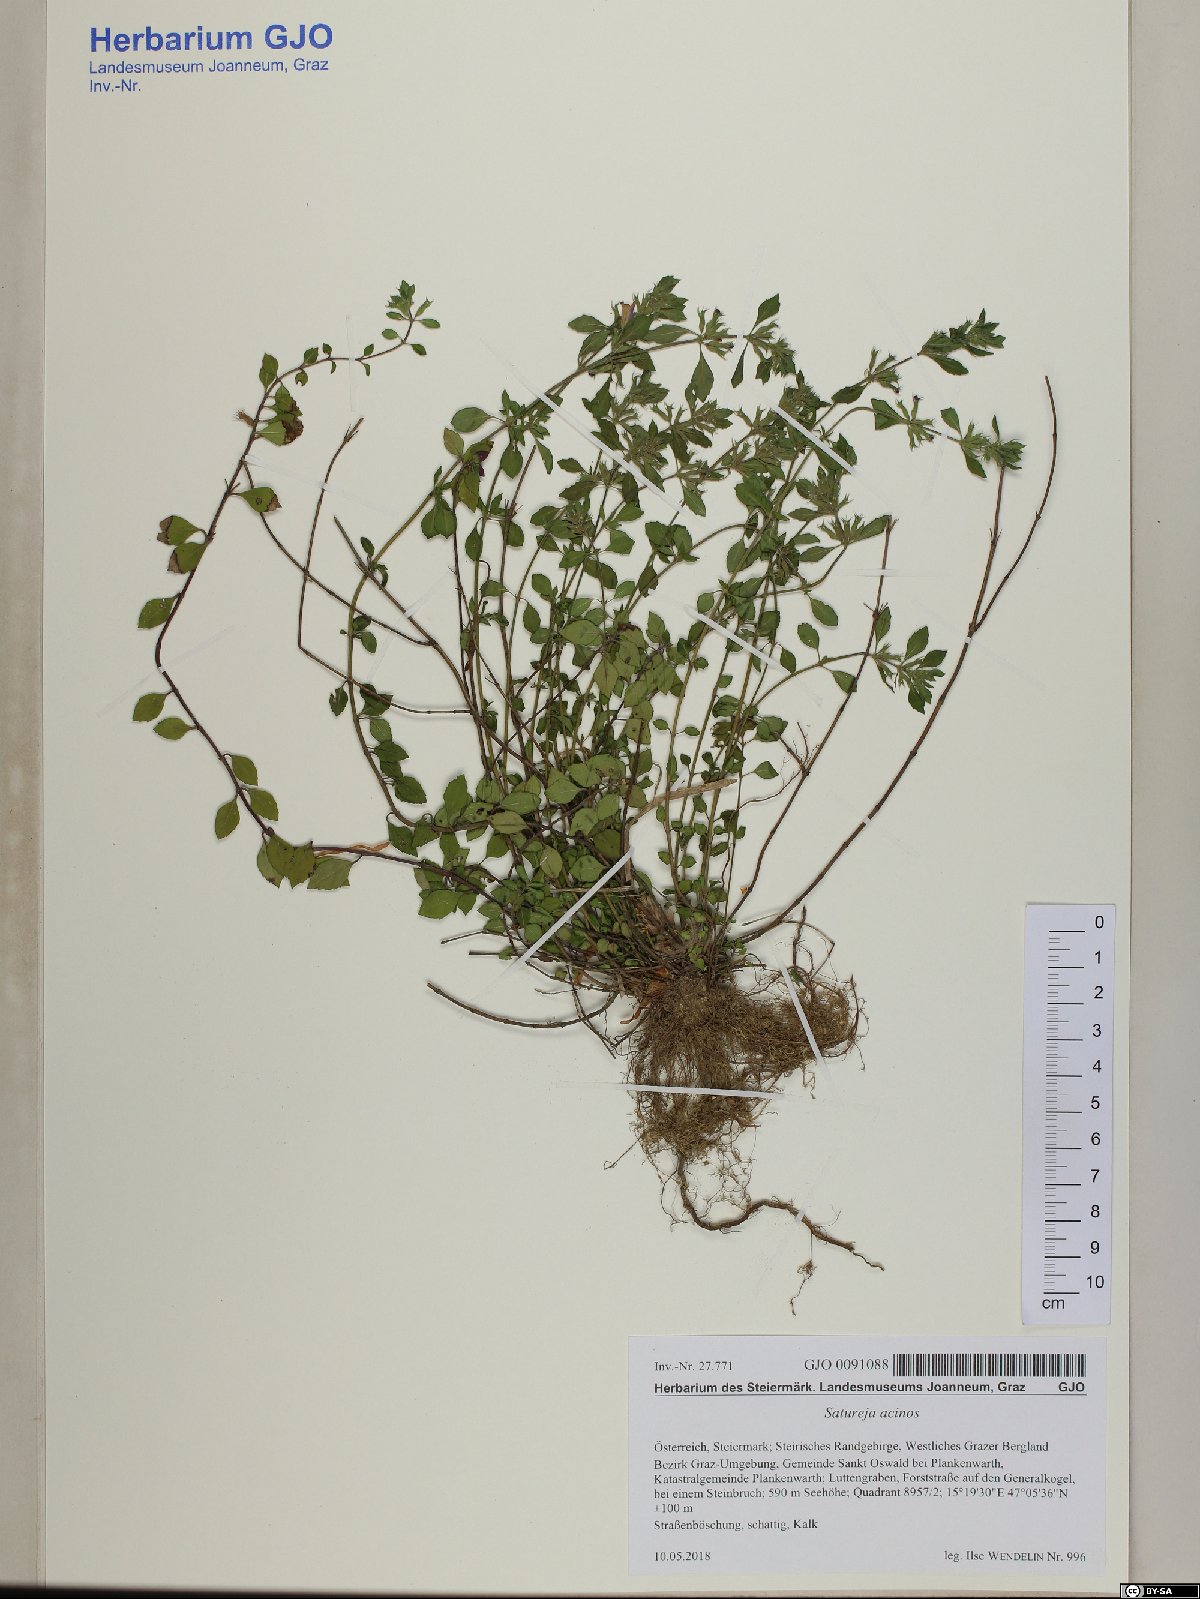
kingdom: Plantae
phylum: Tracheophyta
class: Magnoliopsida
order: Lamiales
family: Lamiaceae
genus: Clinopodium
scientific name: Clinopodium acinos
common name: Basil thyme
